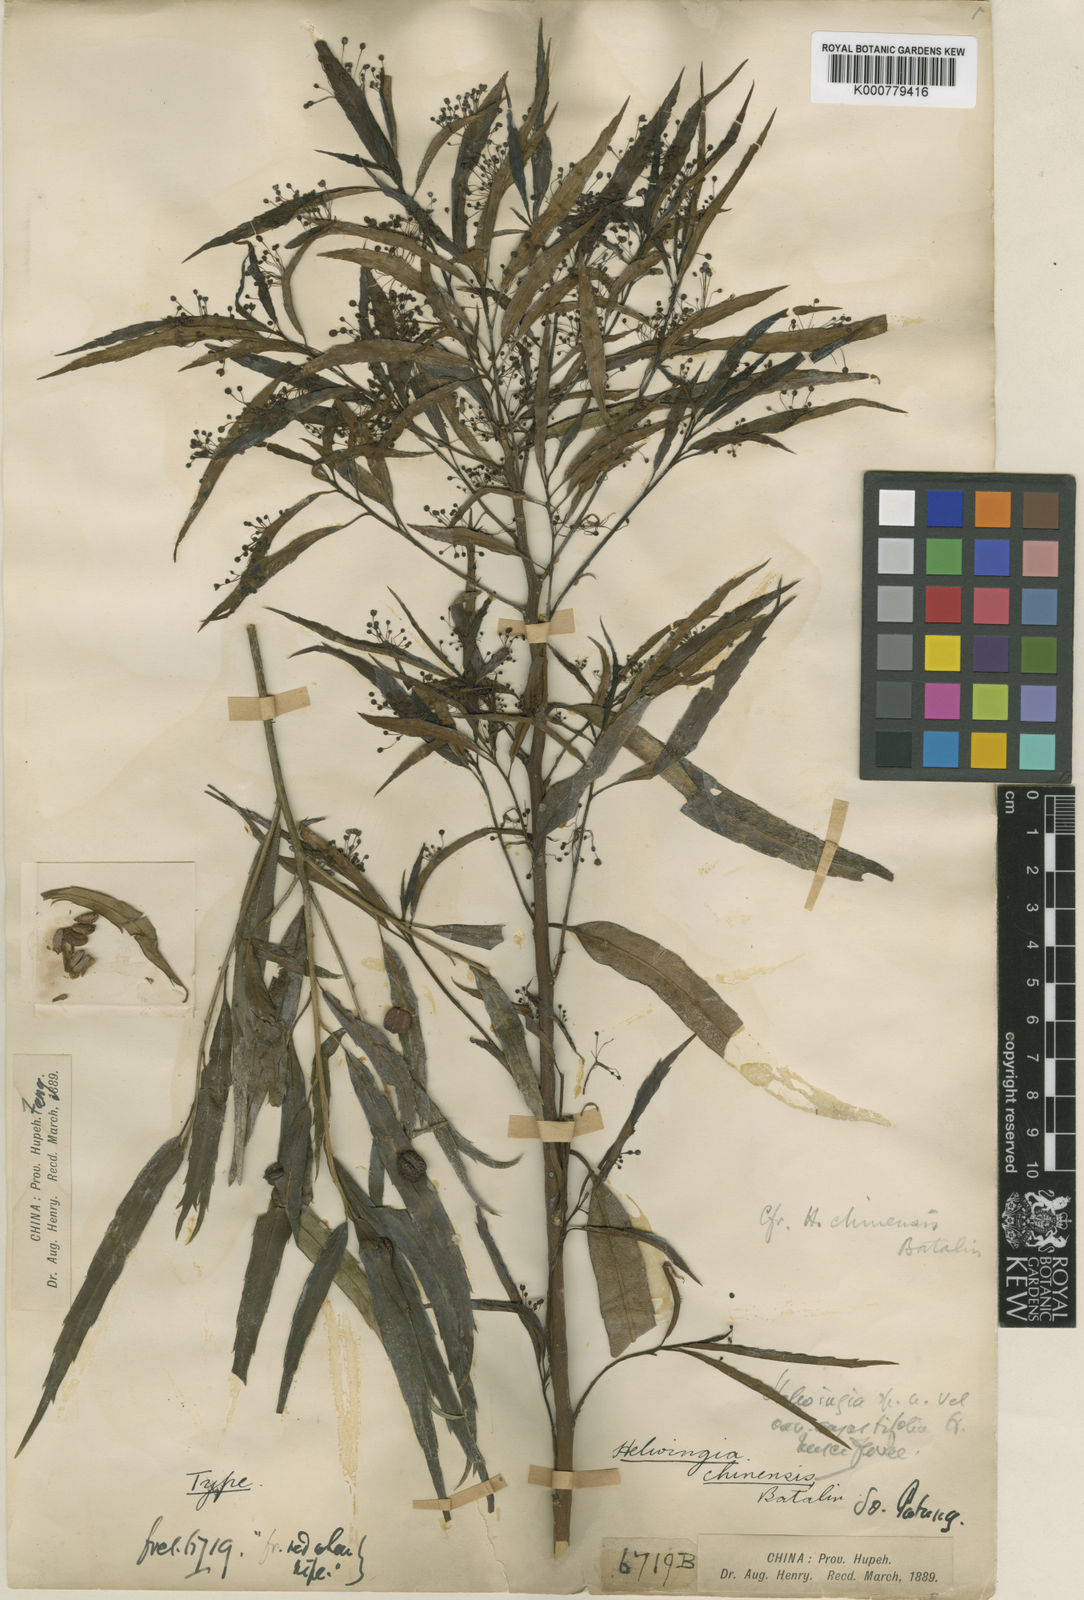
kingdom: Plantae
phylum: Tracheophyta
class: Magnoliopsida
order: Aquifoliales
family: Helwingiaceae
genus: Helwingia
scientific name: Helwingia chinensis
